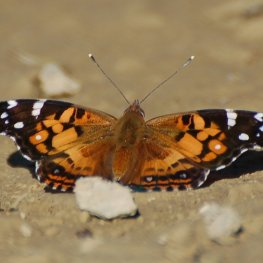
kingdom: Animalia
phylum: Arthropoda
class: Insecta
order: Lepidoptera
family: Nymphalidae
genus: Vanessa
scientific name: Vanessa virginiensis
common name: American Lady
